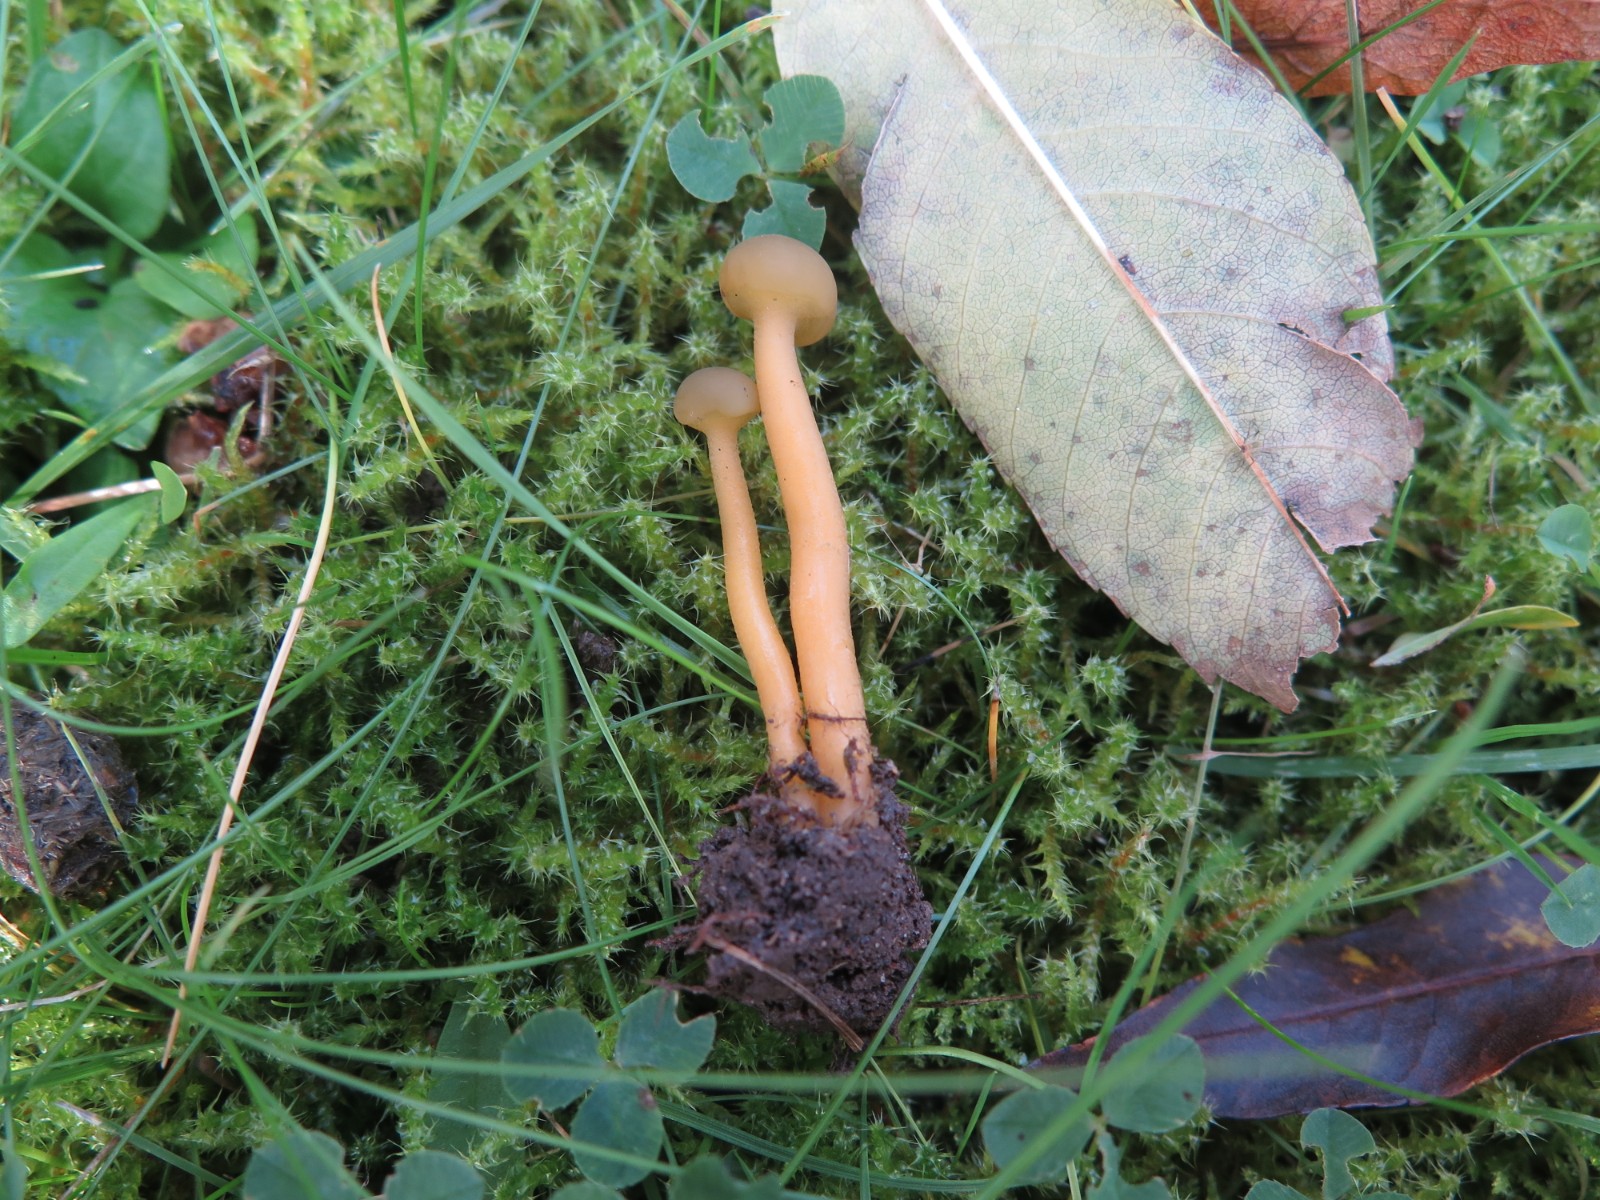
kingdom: Fungi
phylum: Ascomycota
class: Leotiomycetes
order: Leotiales
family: Leotiaceae
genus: Leotia
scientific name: Leotia lubrica
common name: ravsvamp
